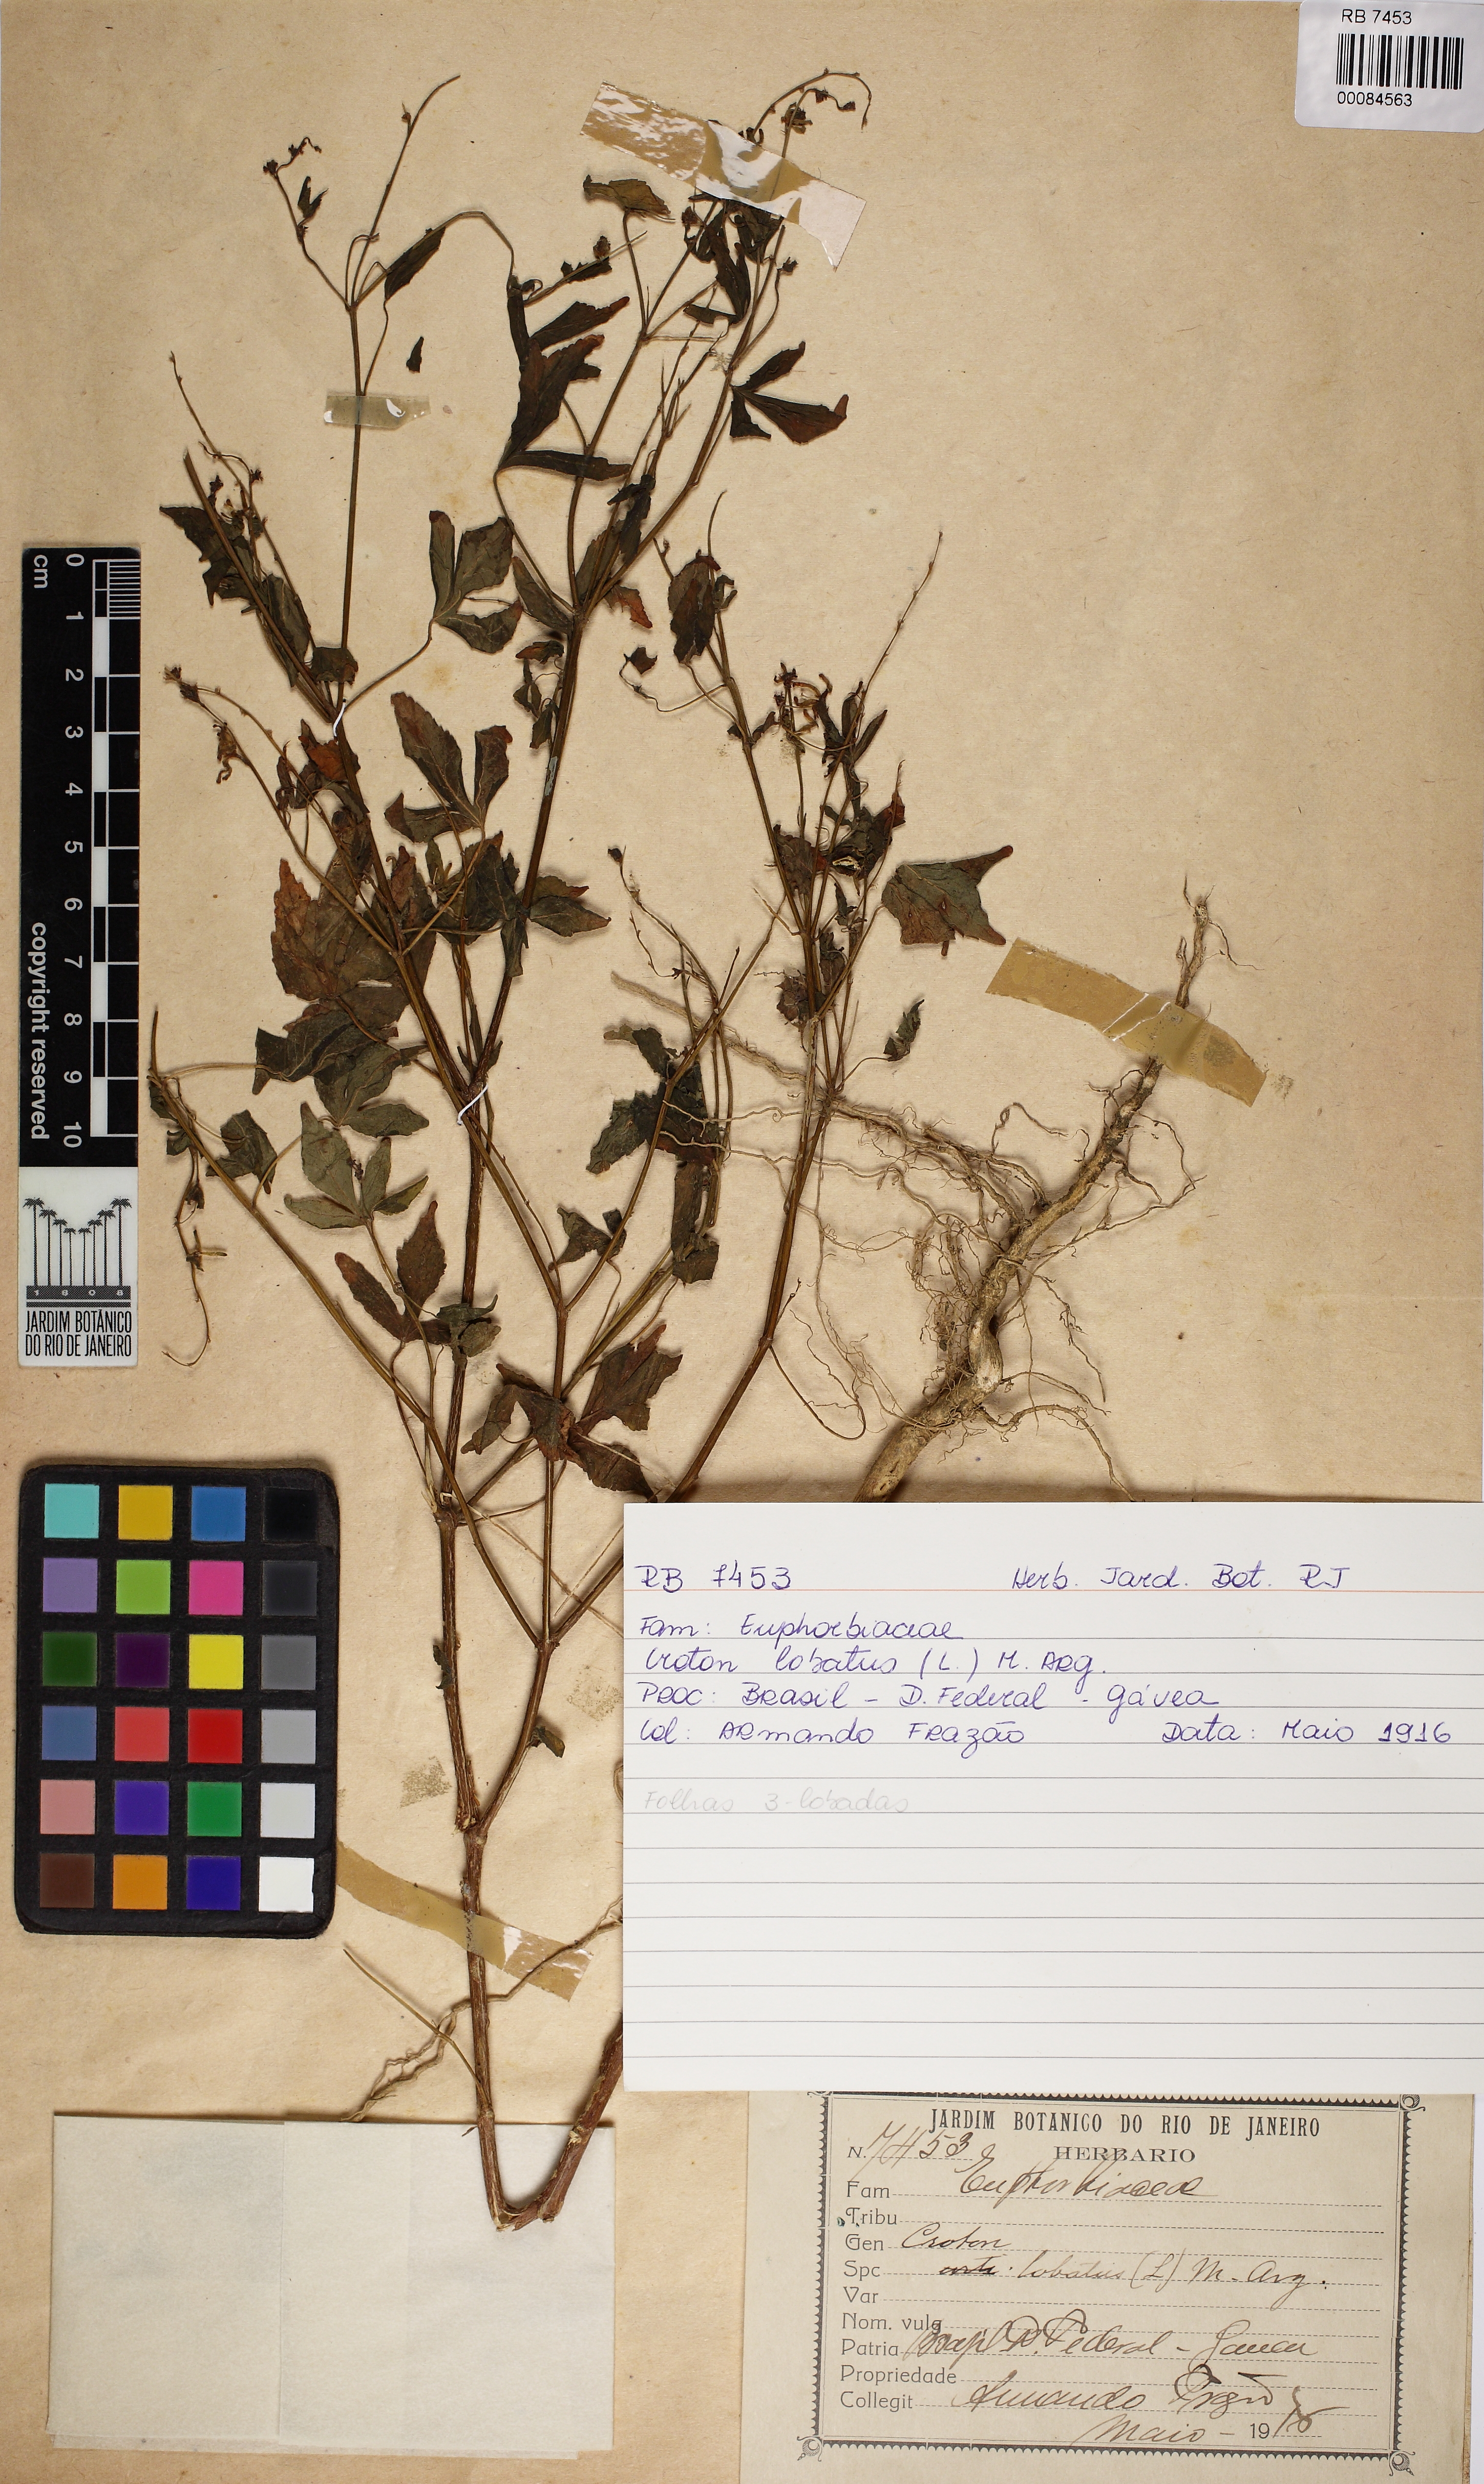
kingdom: Plantae
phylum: Tracheophyta
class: Magnoliopsida
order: Malpighiales
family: Euphorbiaceae
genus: Astraea
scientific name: Astraea gracilis
